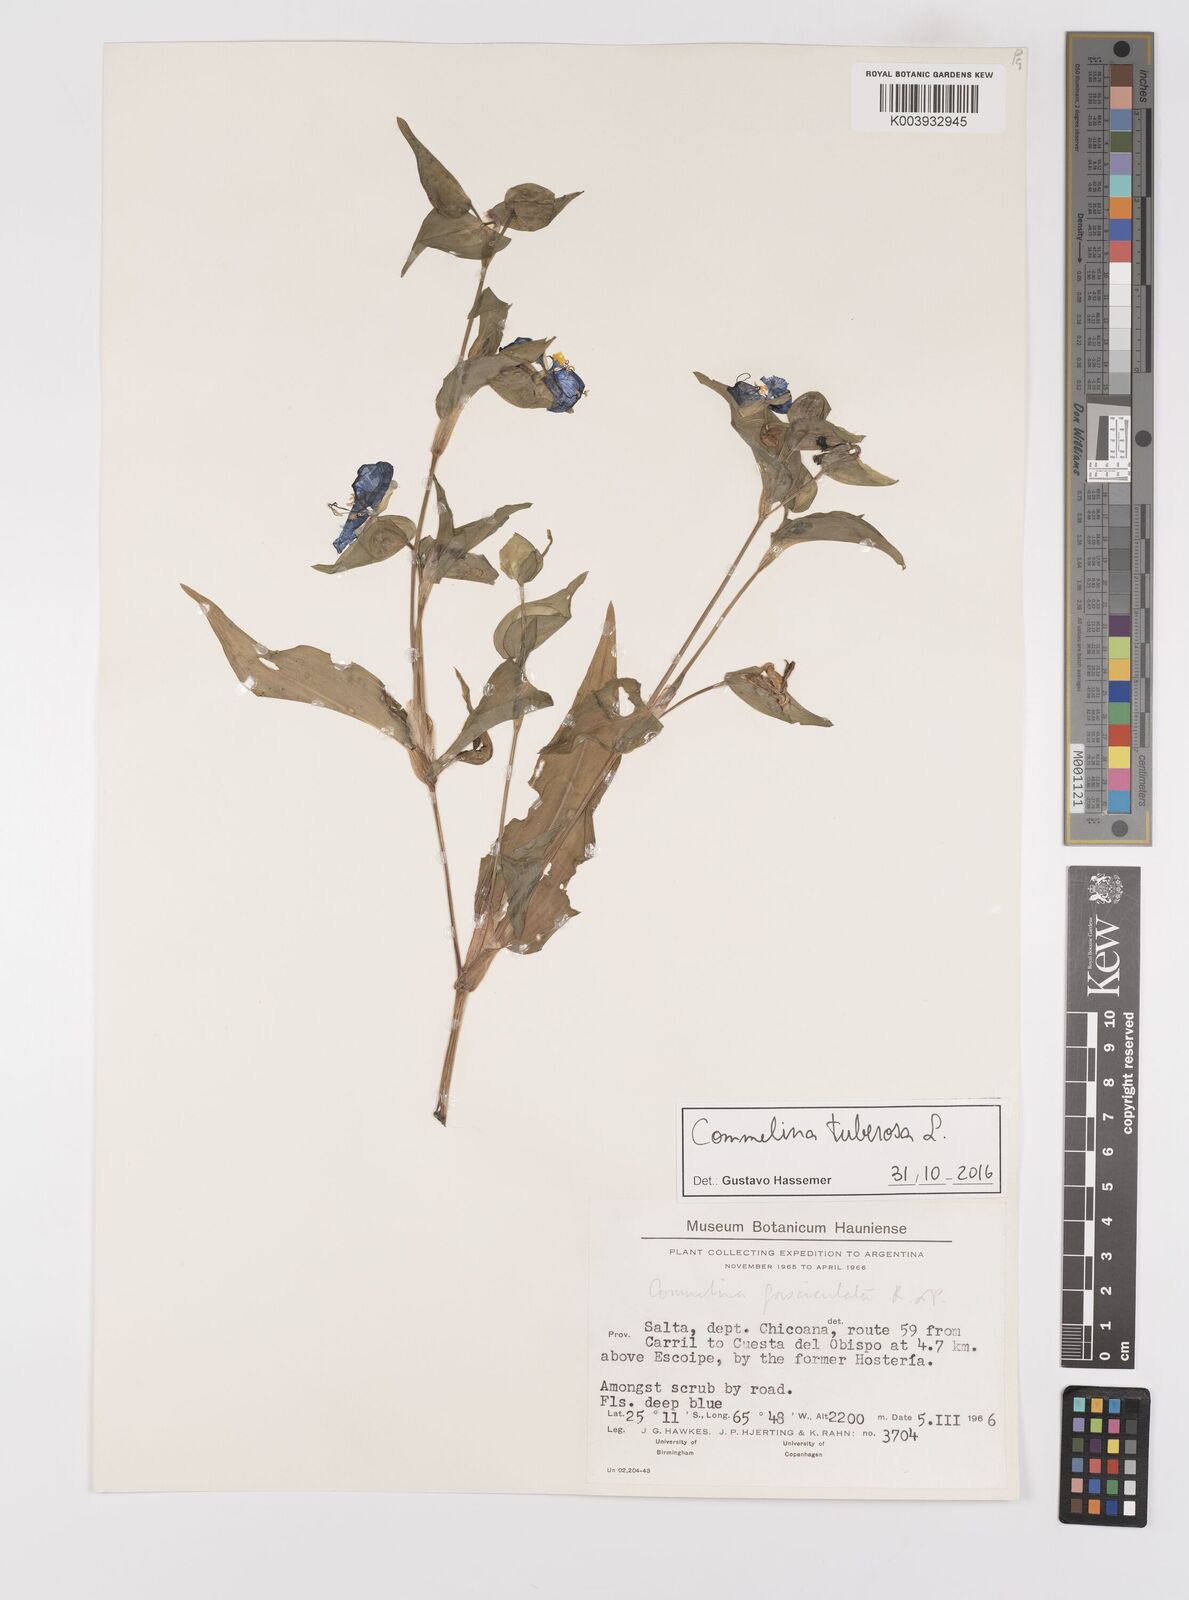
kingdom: Plantae
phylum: Tracheophyta
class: Liliopsida
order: Commelinales
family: Commelinaceae
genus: Commelina
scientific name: Commelina tuberosa
